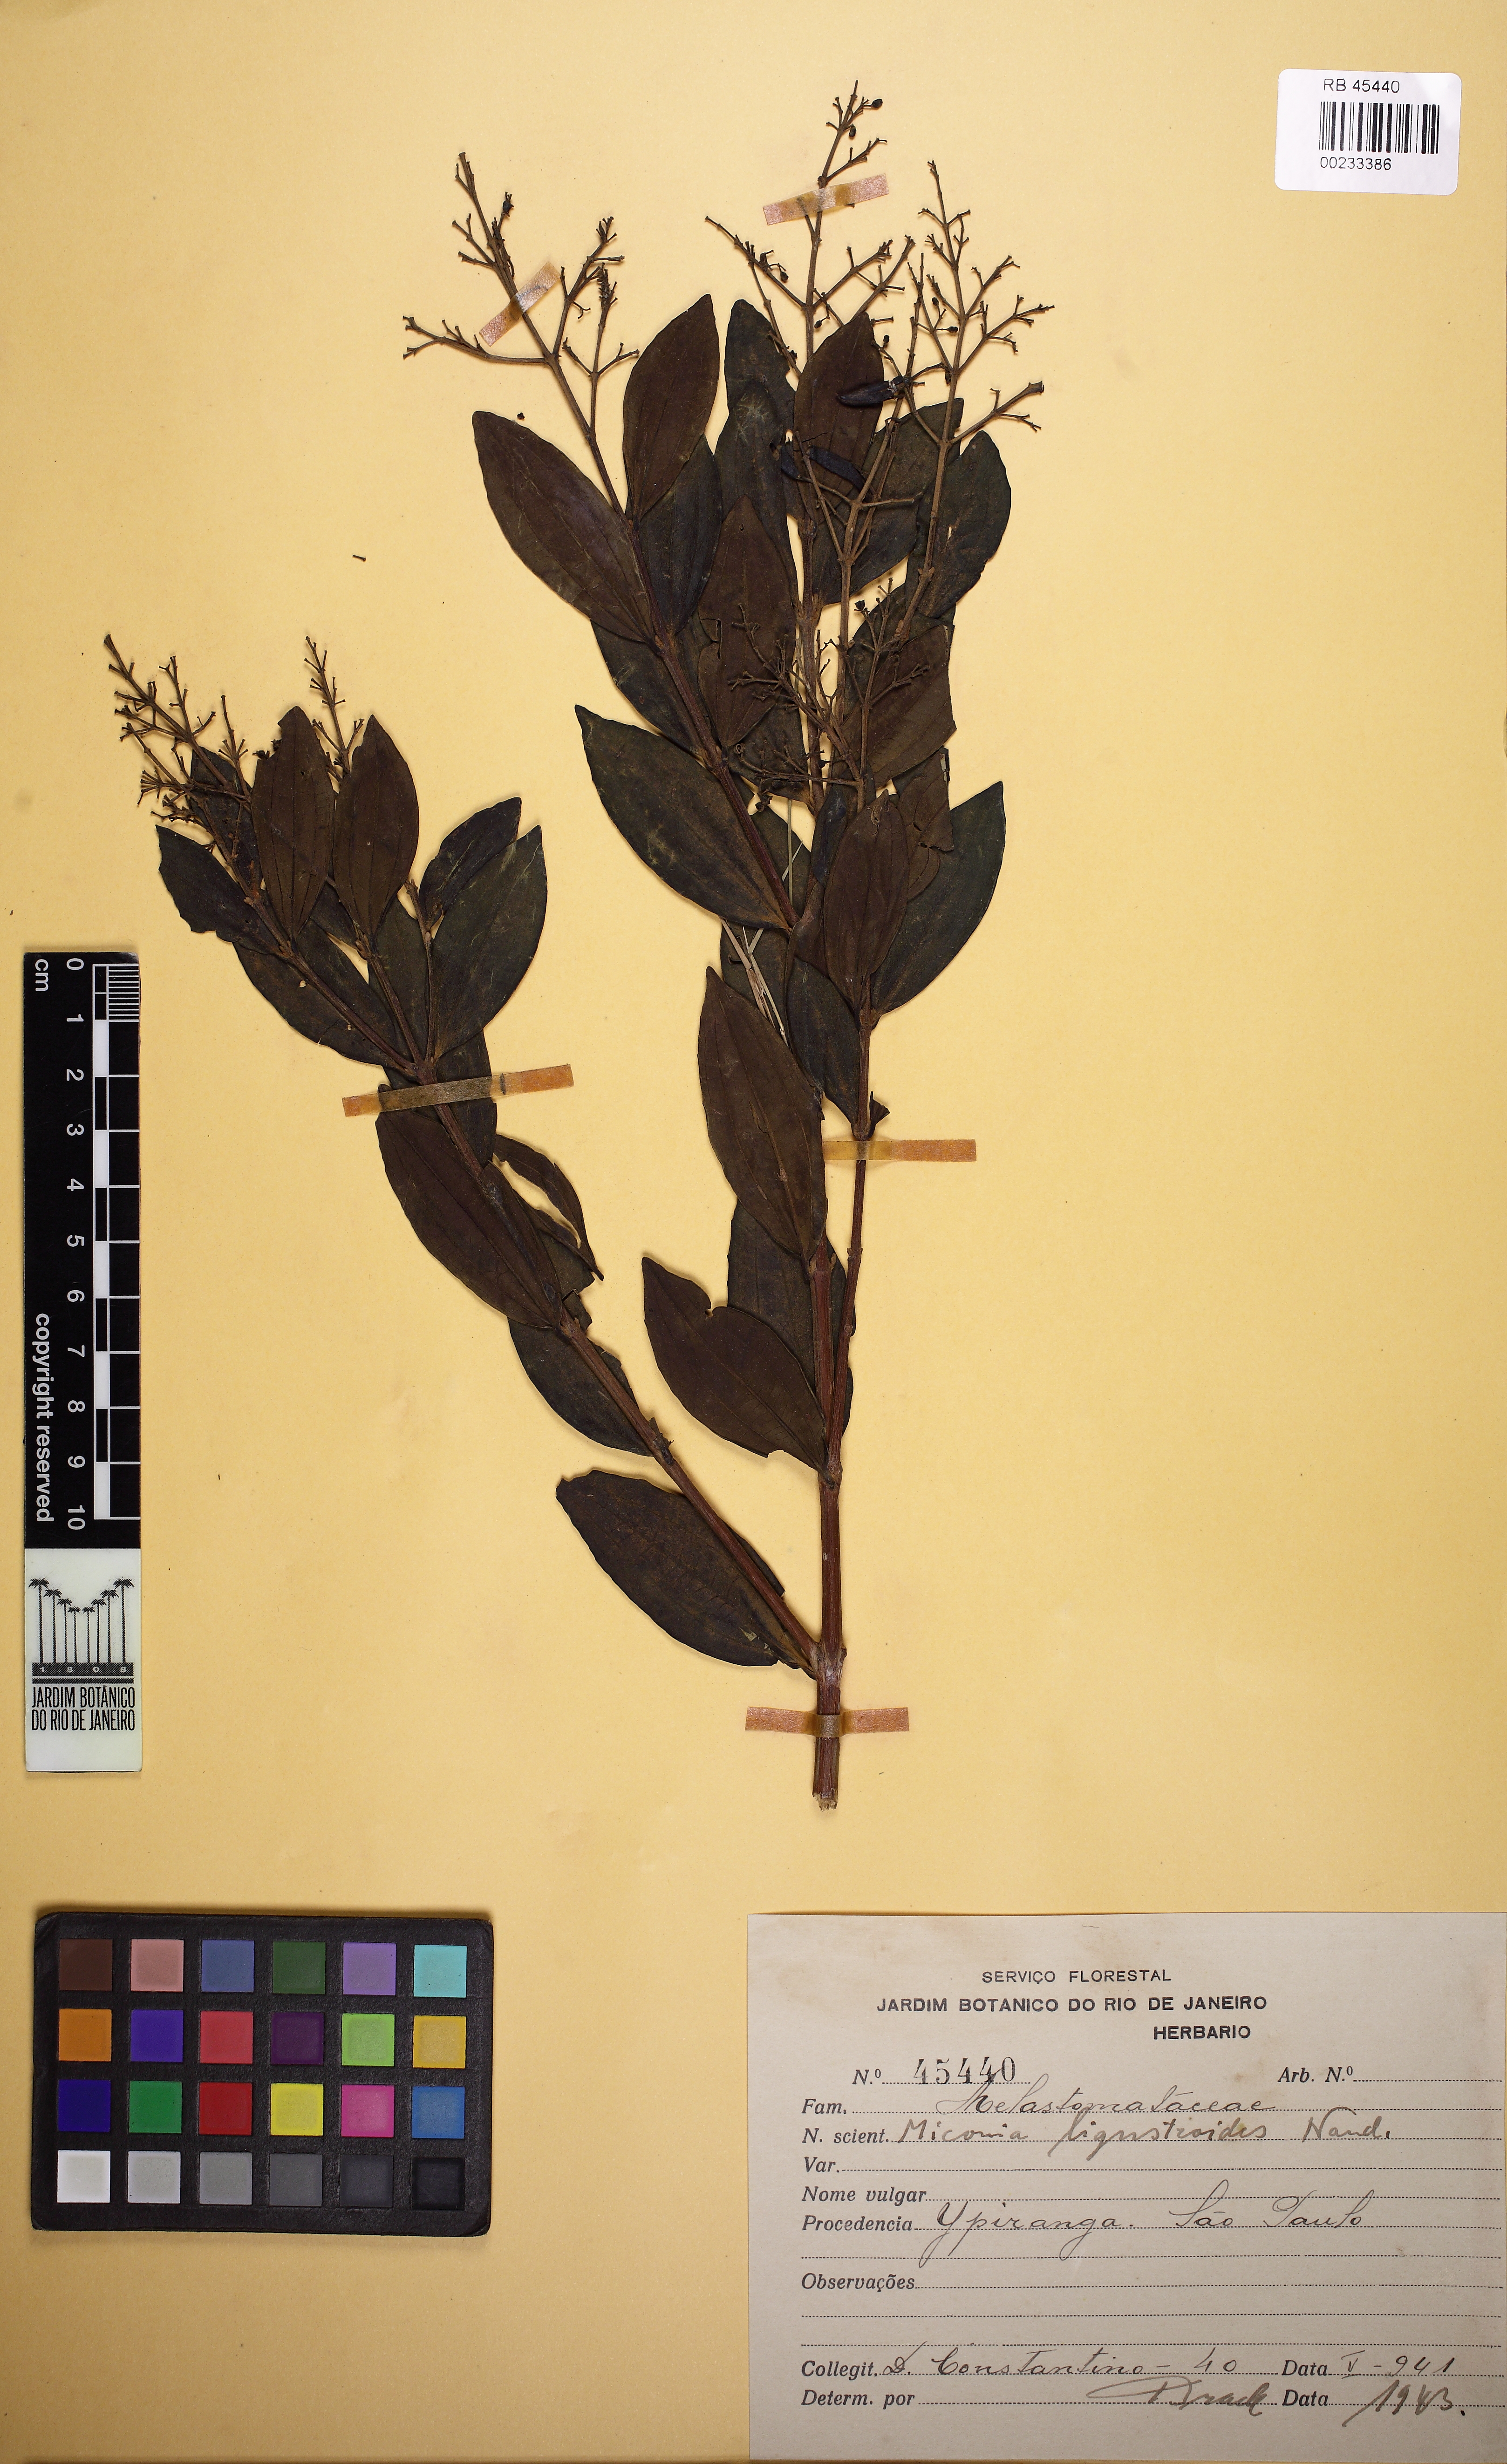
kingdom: Plantae
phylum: Tracheophyta
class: Magnoliopsida
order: Myrtales
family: Melastomataceae
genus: Miconia
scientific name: Miconia ligustroides
